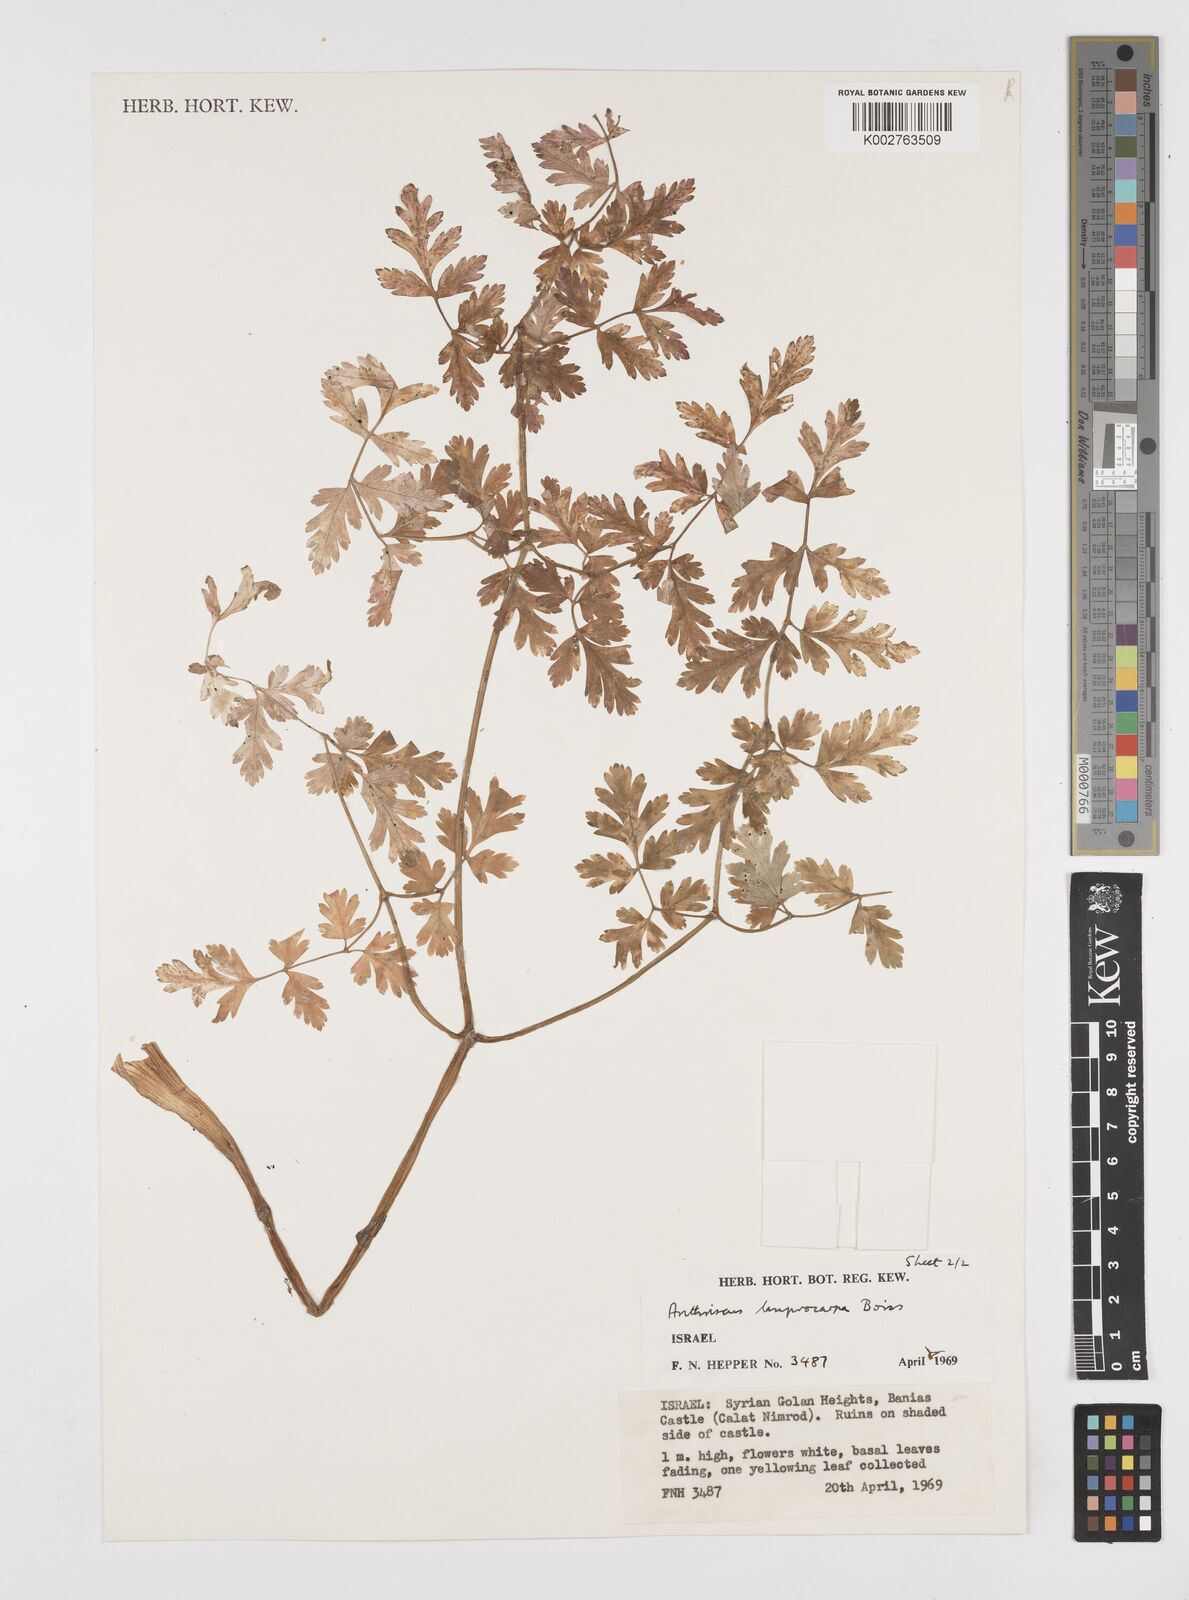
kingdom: Plantae
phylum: Tracheophyta
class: Magnoliopsida
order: Apiales
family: Apiaceae
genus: Anthriscus
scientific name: Anthriscus lamprocarpa
